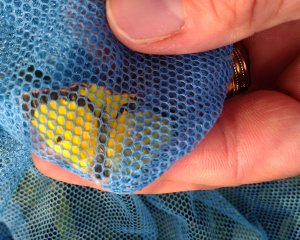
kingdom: Animalia
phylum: Arthropoda
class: Insecta
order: Lepidoptera
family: Pieridae
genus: Colias
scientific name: Colias eurytheme
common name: Orange Sulphur
